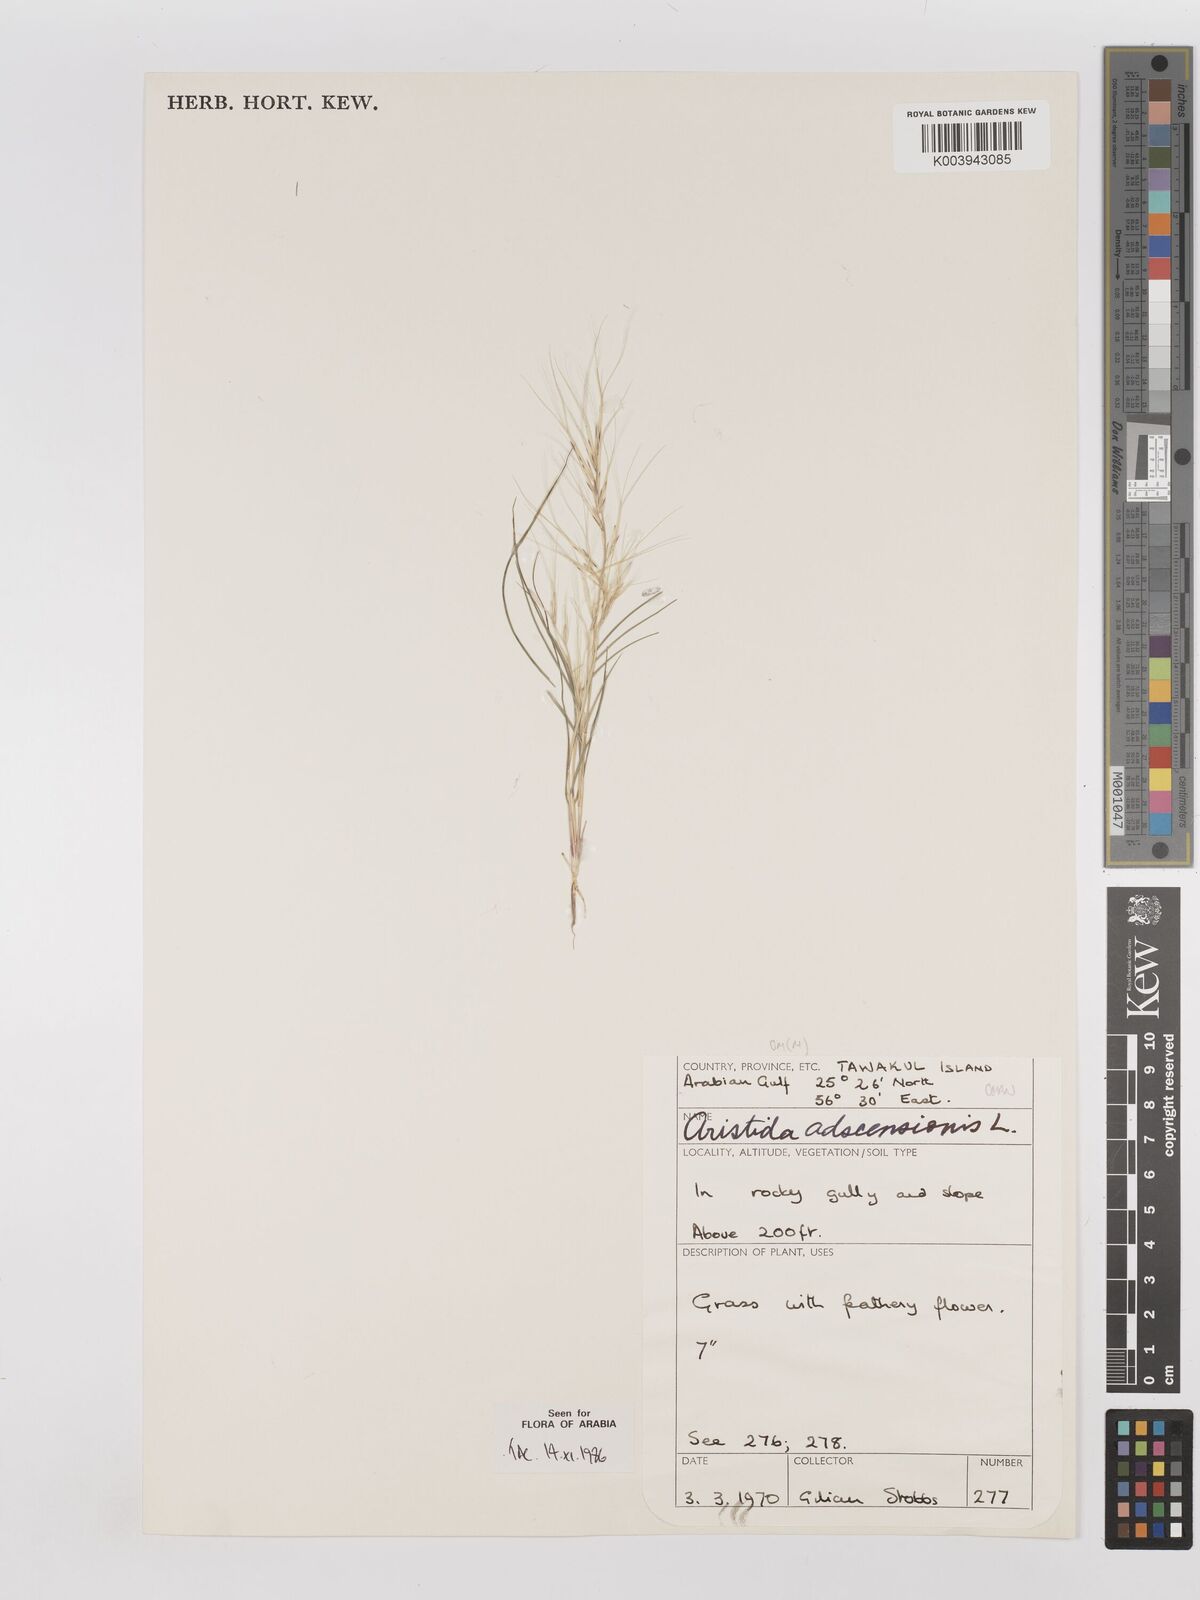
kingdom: Plantae
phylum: Tracheophyta
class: Liliopsida
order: Poales
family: Poaceae
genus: Aristida
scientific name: Aristida adscensionis
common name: Sixweeks threeawn
